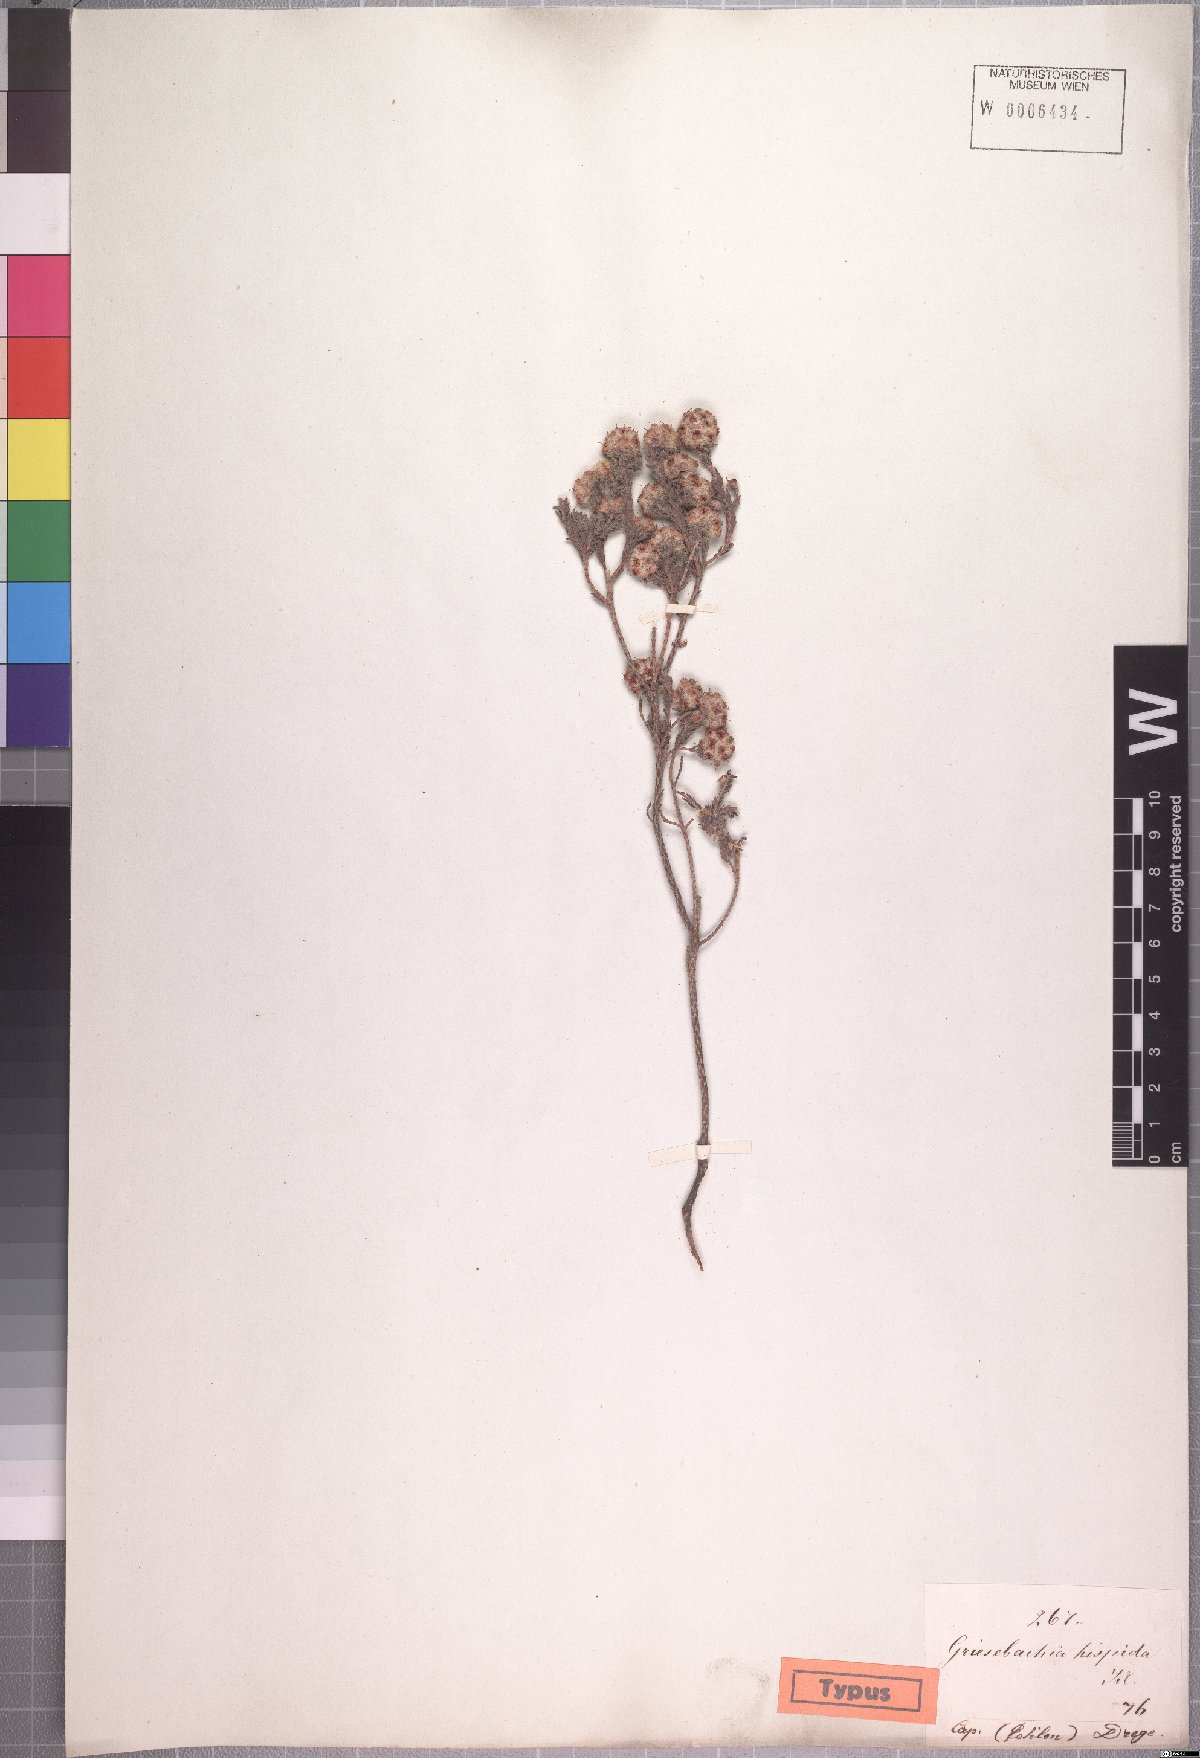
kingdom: Plantae
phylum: Tracheophyta
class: Magnoliopsida
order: Ericales
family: Ericaceae
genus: Erica
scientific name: Erica plumosa
